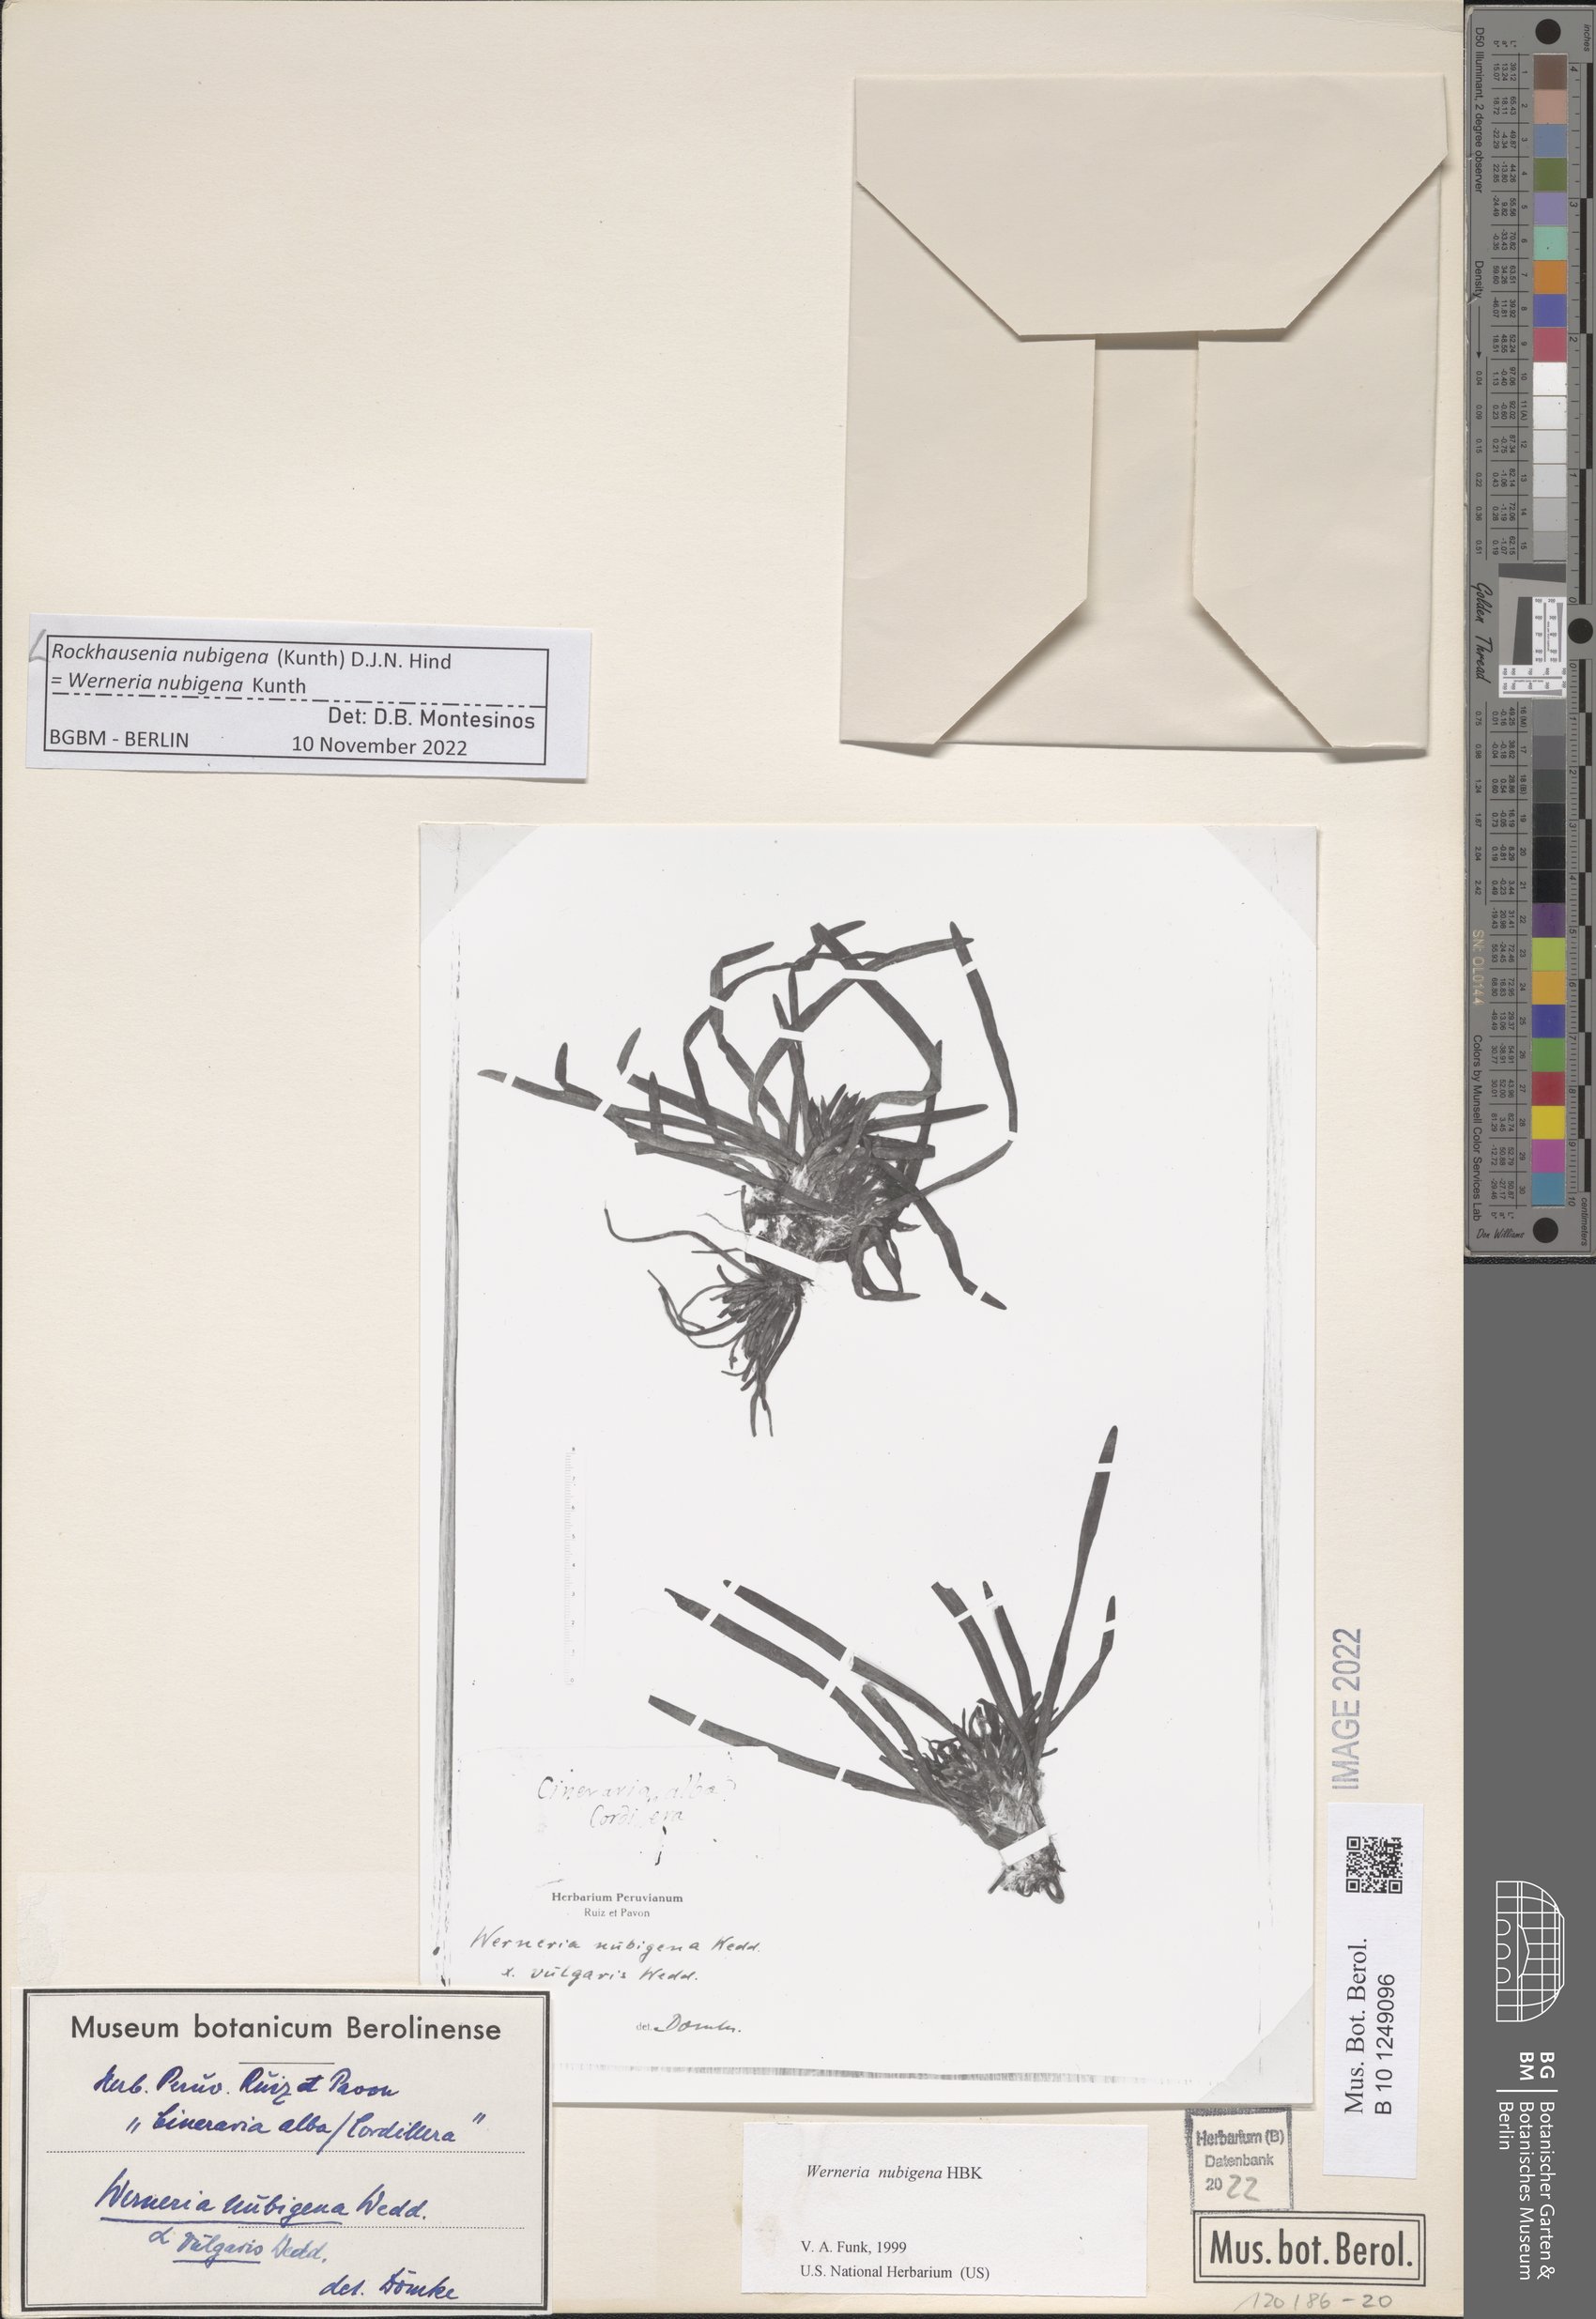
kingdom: Plantae
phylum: Tracheophyta
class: Magnoliopsida
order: Asterales
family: Asteraceae
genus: Rockhausenia
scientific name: Rockhausenia nubigena
